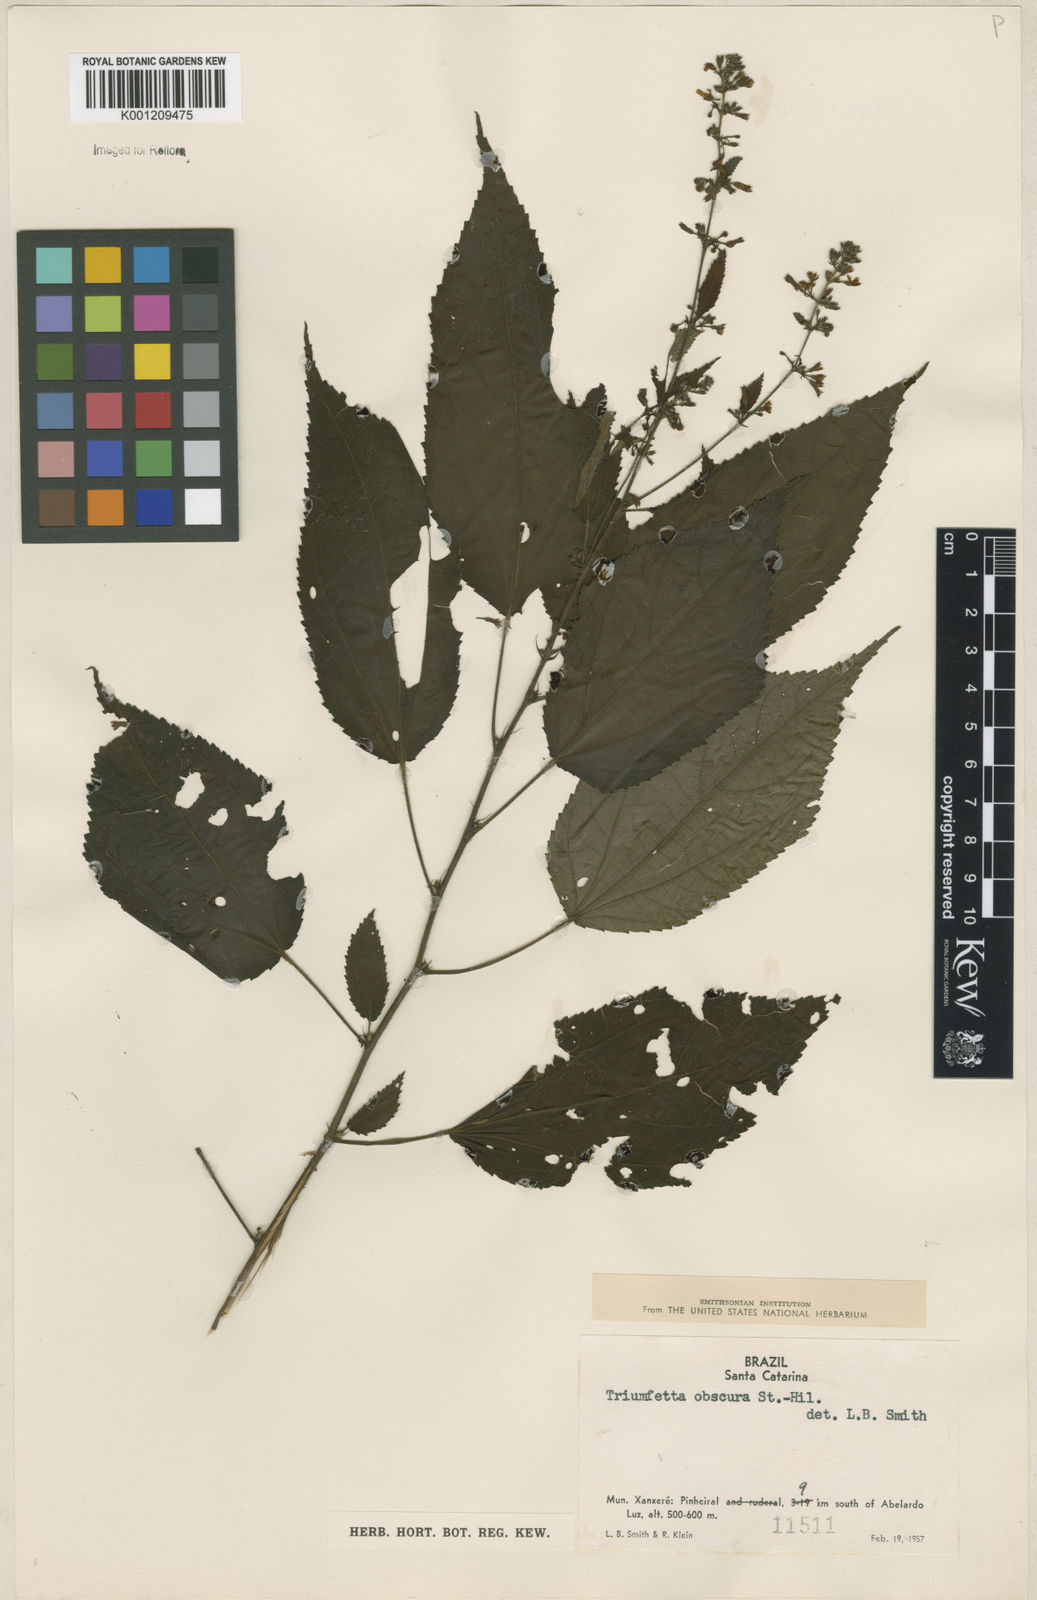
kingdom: Plantae
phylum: Tracheophyta
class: Magnoliopsida
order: Malvales
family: Malvaceae
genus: Triumfetta
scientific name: Triumfetta obscura
